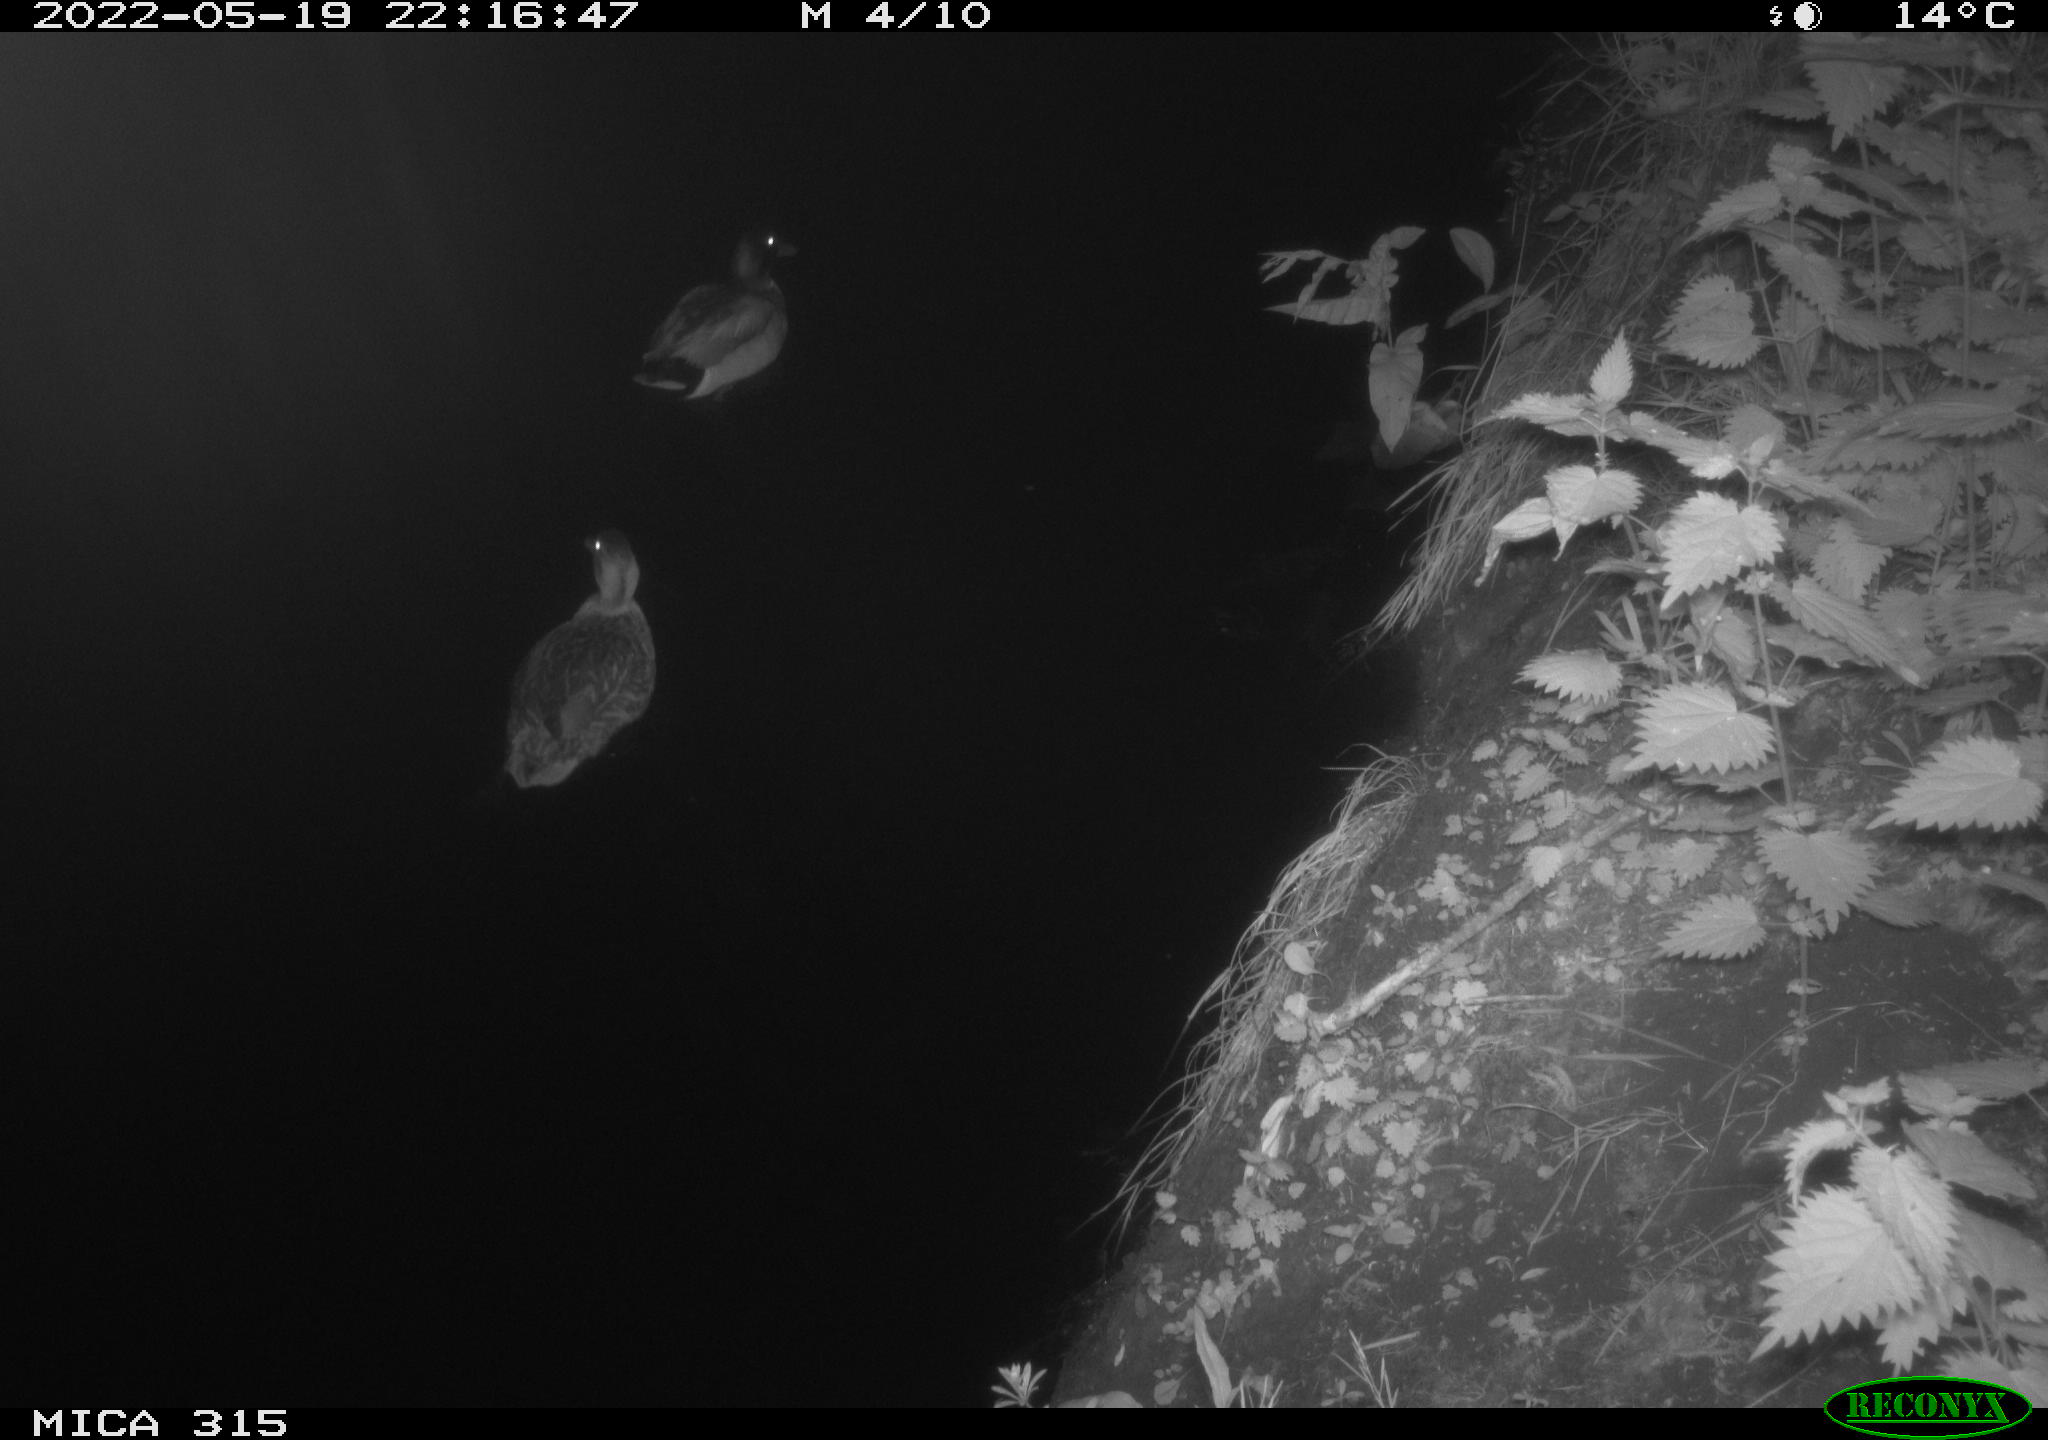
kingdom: Animalia
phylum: Chordata
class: Aves
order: Anseriformes
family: Anatidae
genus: Anas
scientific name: Anas
